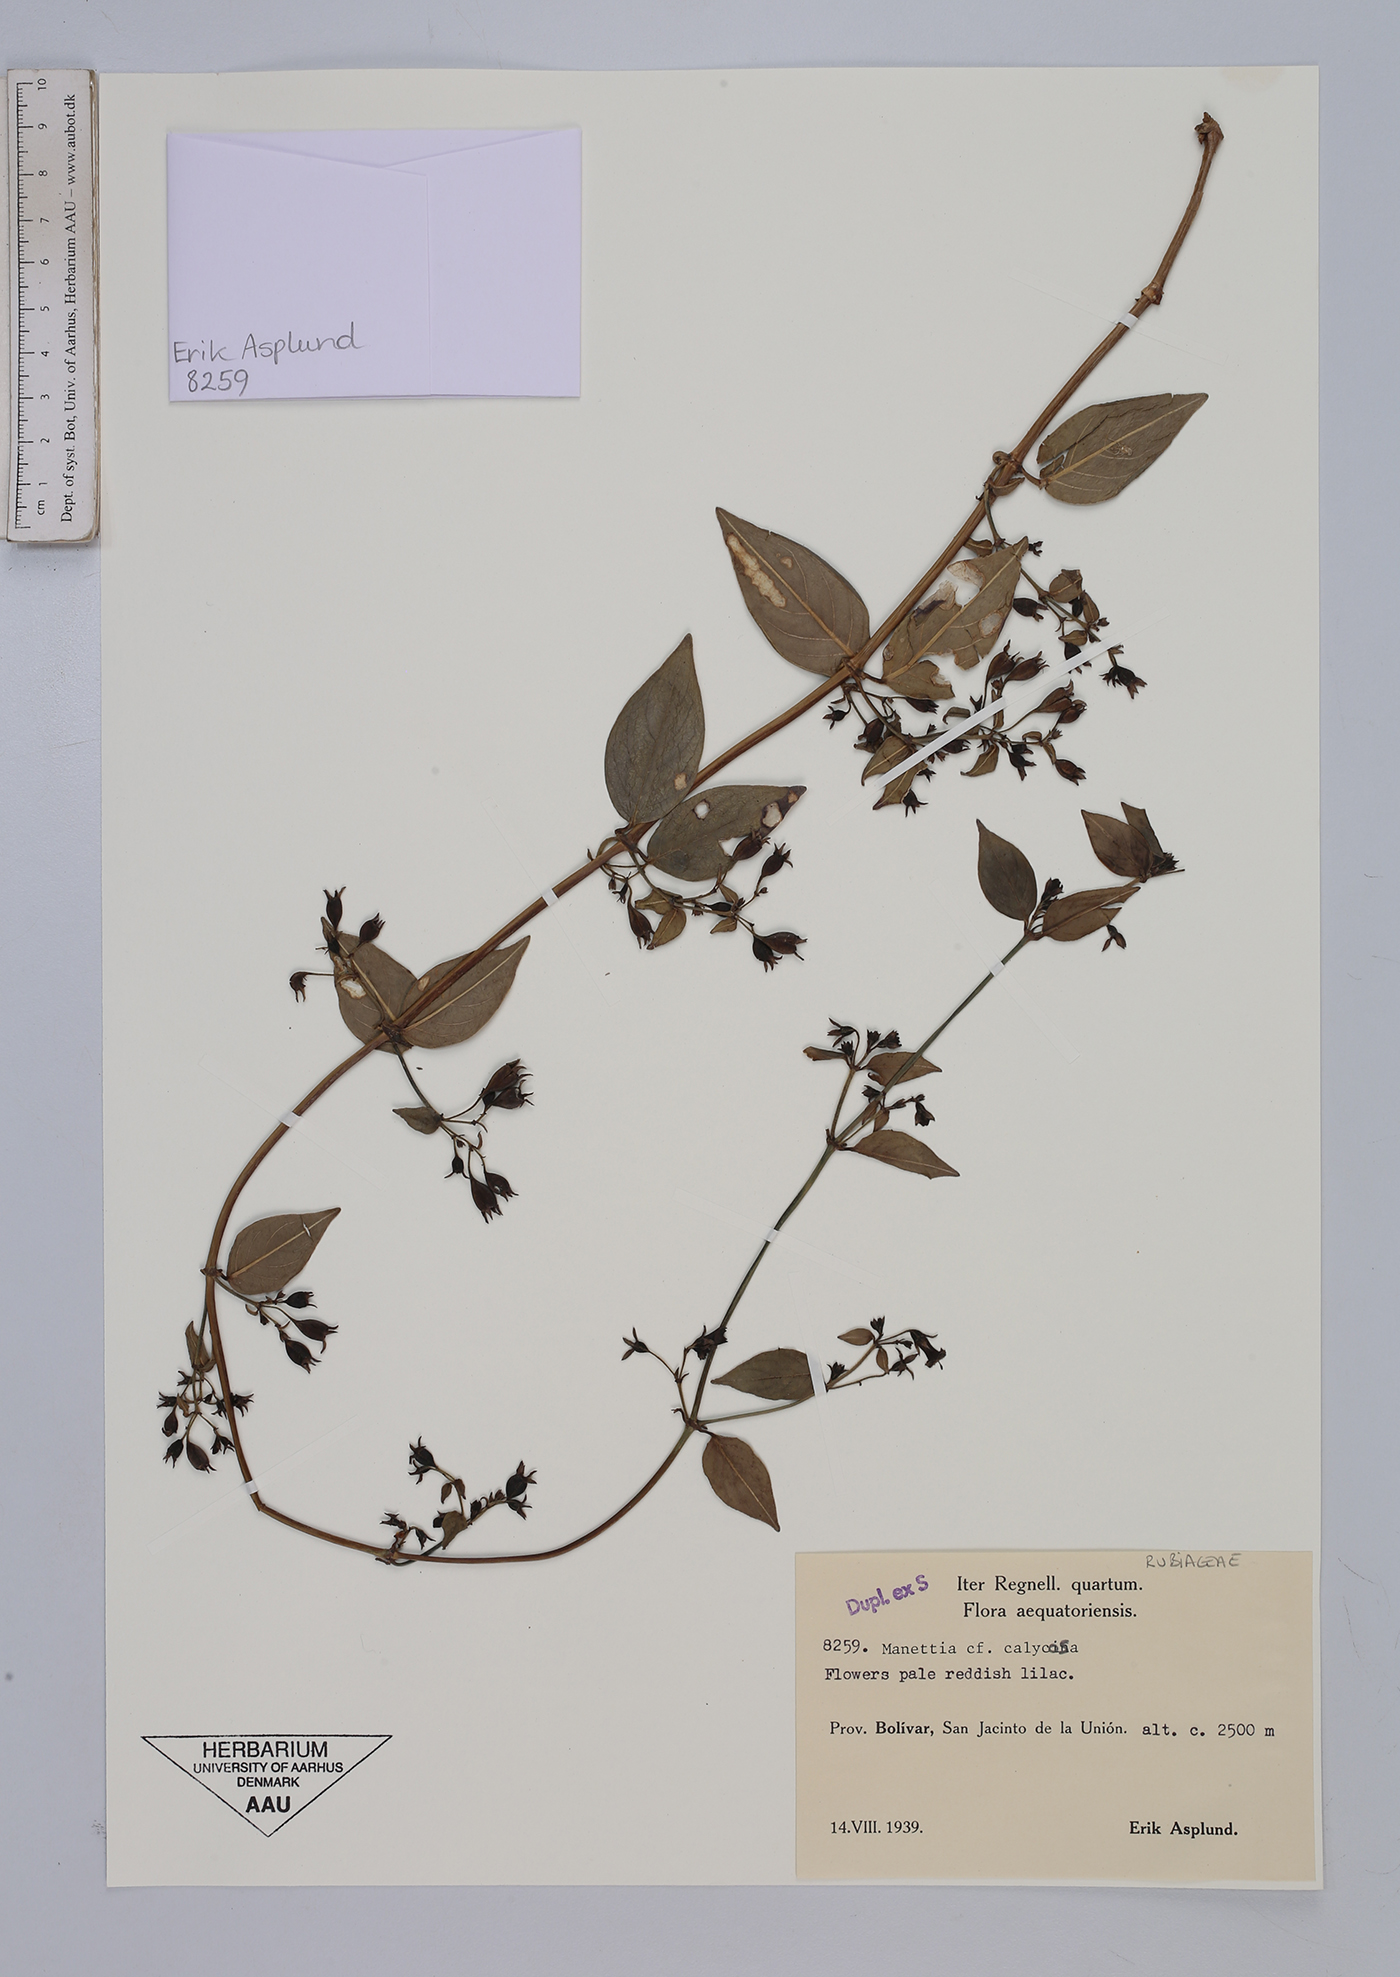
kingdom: Plantae
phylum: Tracheophyta
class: Magnoliopsida
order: Gentianales
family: Rubiaceae
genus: Manettia
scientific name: Manettia calycosa
